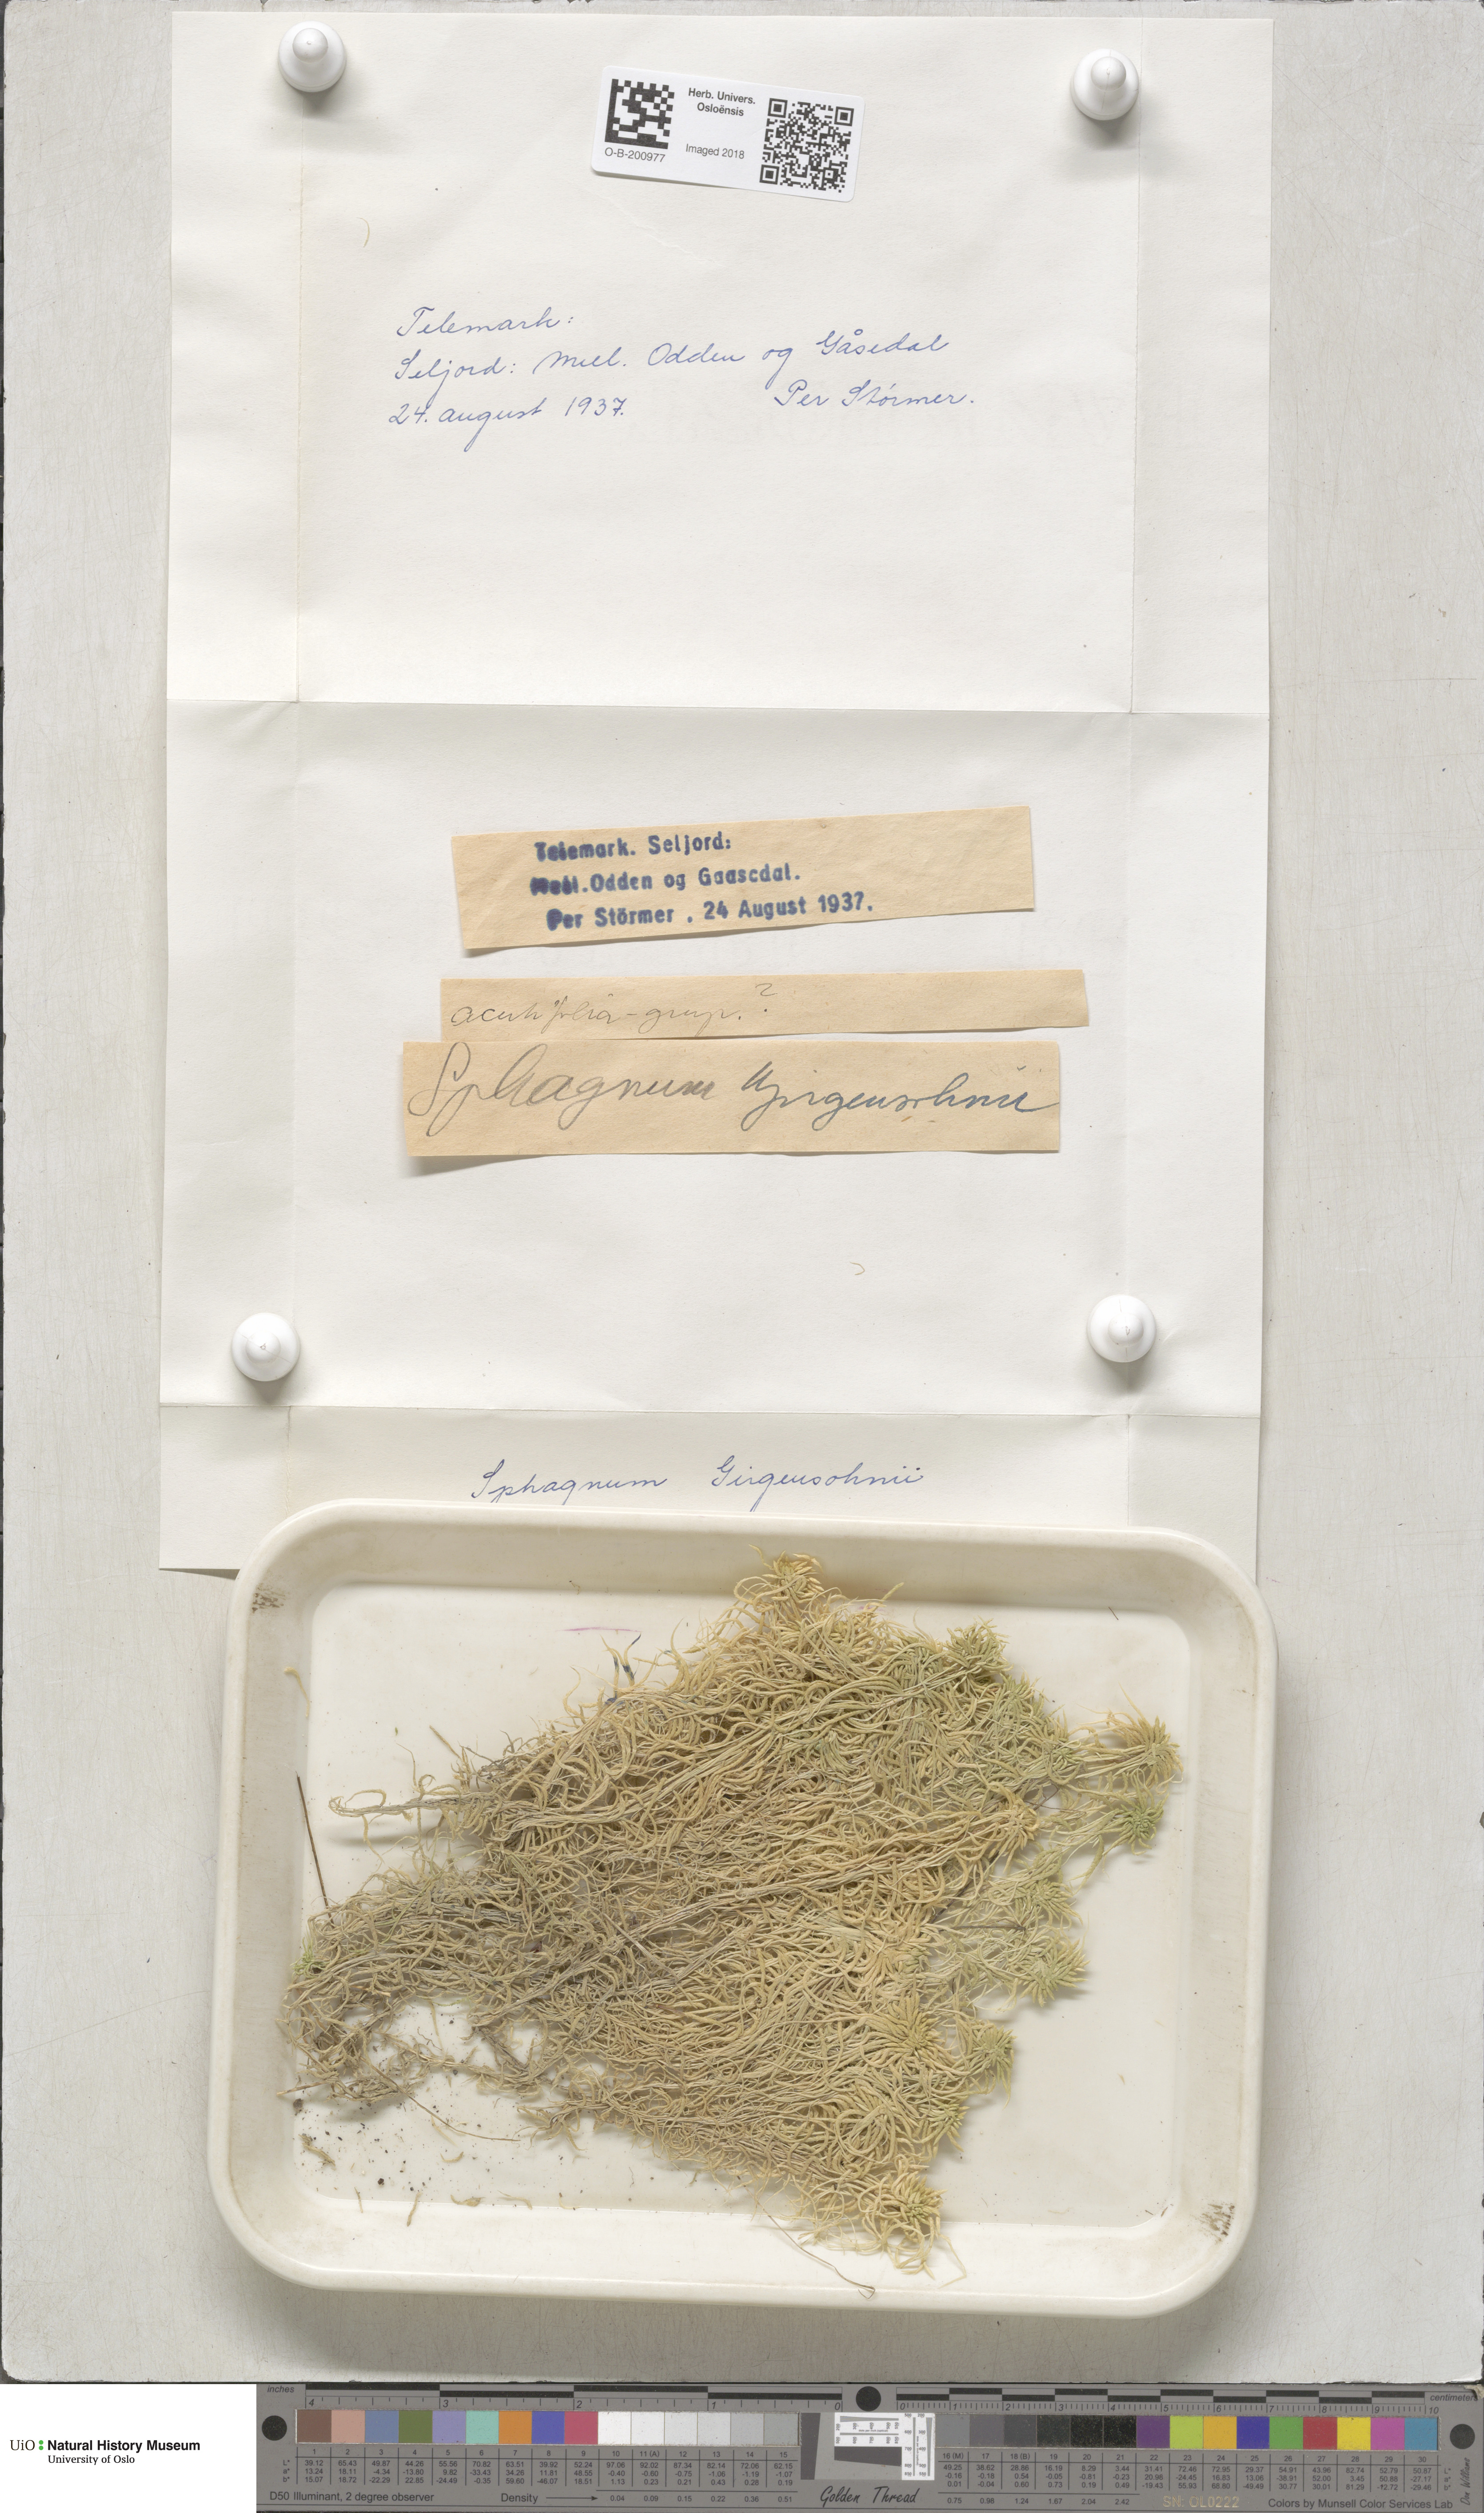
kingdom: Plantae
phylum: Bryophyta
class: Sphagnopsida
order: Sphagnales
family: Sphagnaceae
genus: Sphagnum
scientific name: Sphagnum girgensohnii
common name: Girgensohn's peat moss
